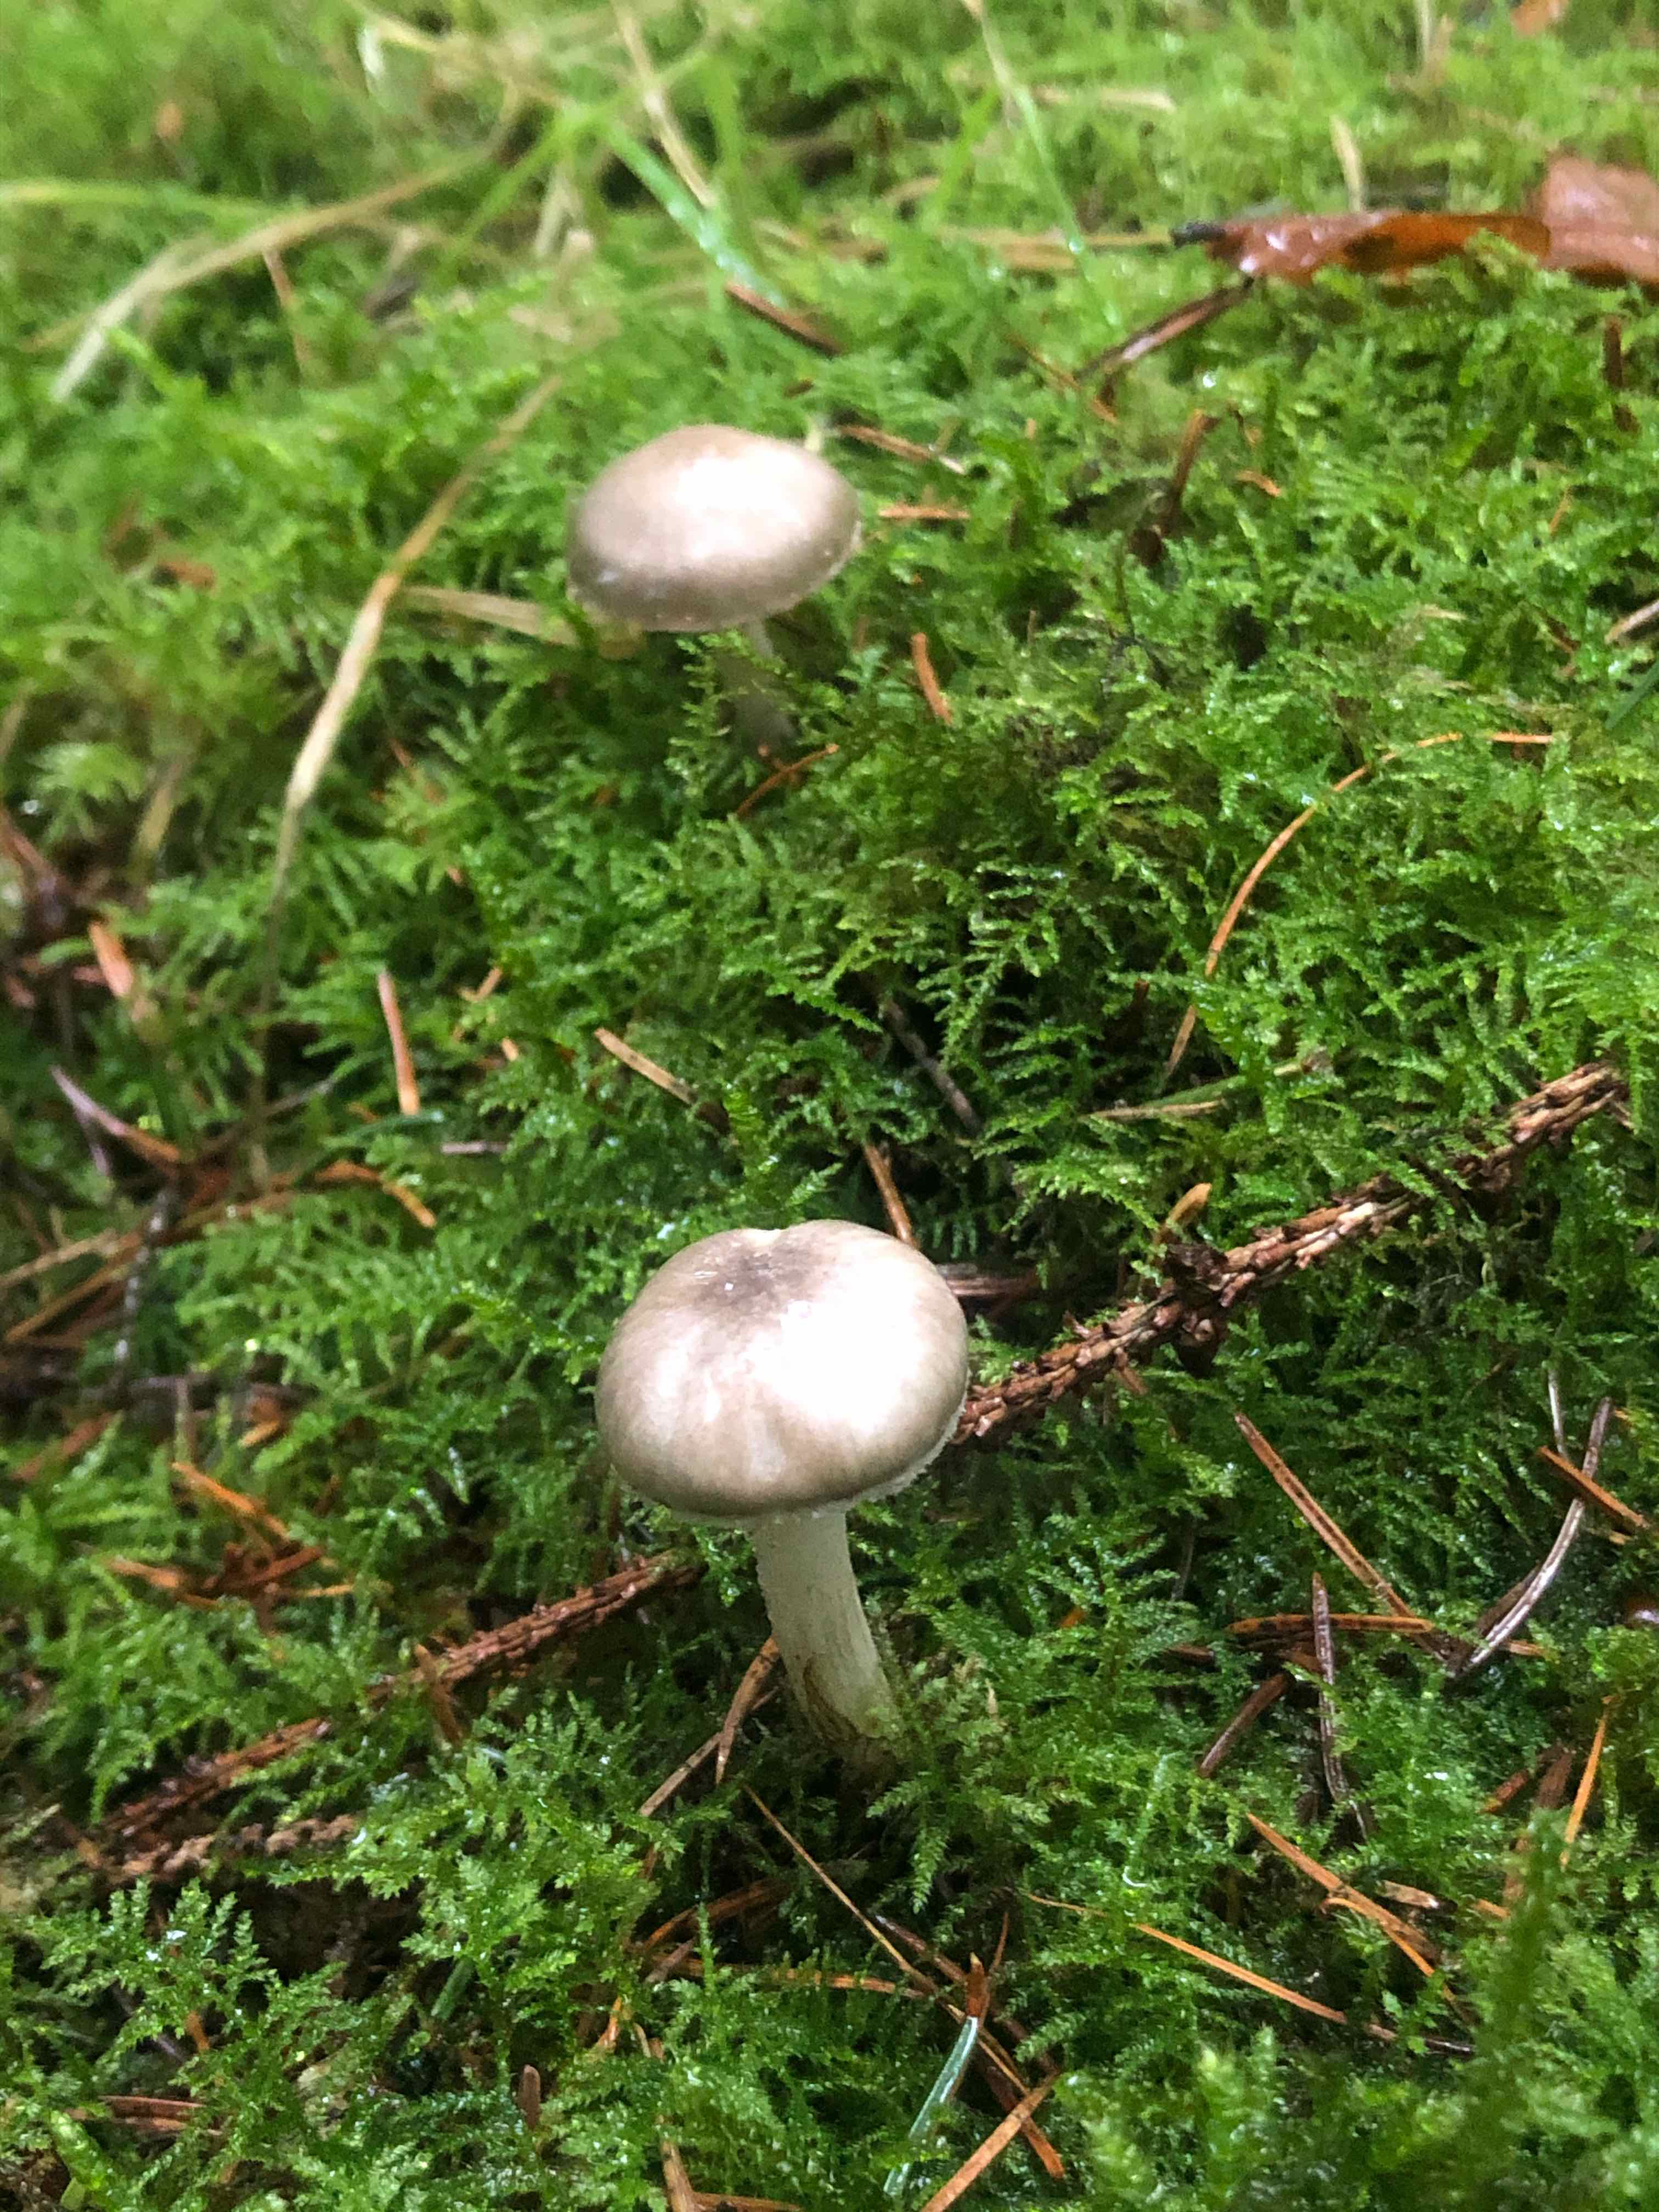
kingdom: Fungi
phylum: Basidiomycota
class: Agaricomycetes
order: Agaricales
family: Hygrophoraceae
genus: Hygrophorus
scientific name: Hygrophorus agathosmus
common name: vellugtende sneglehat
